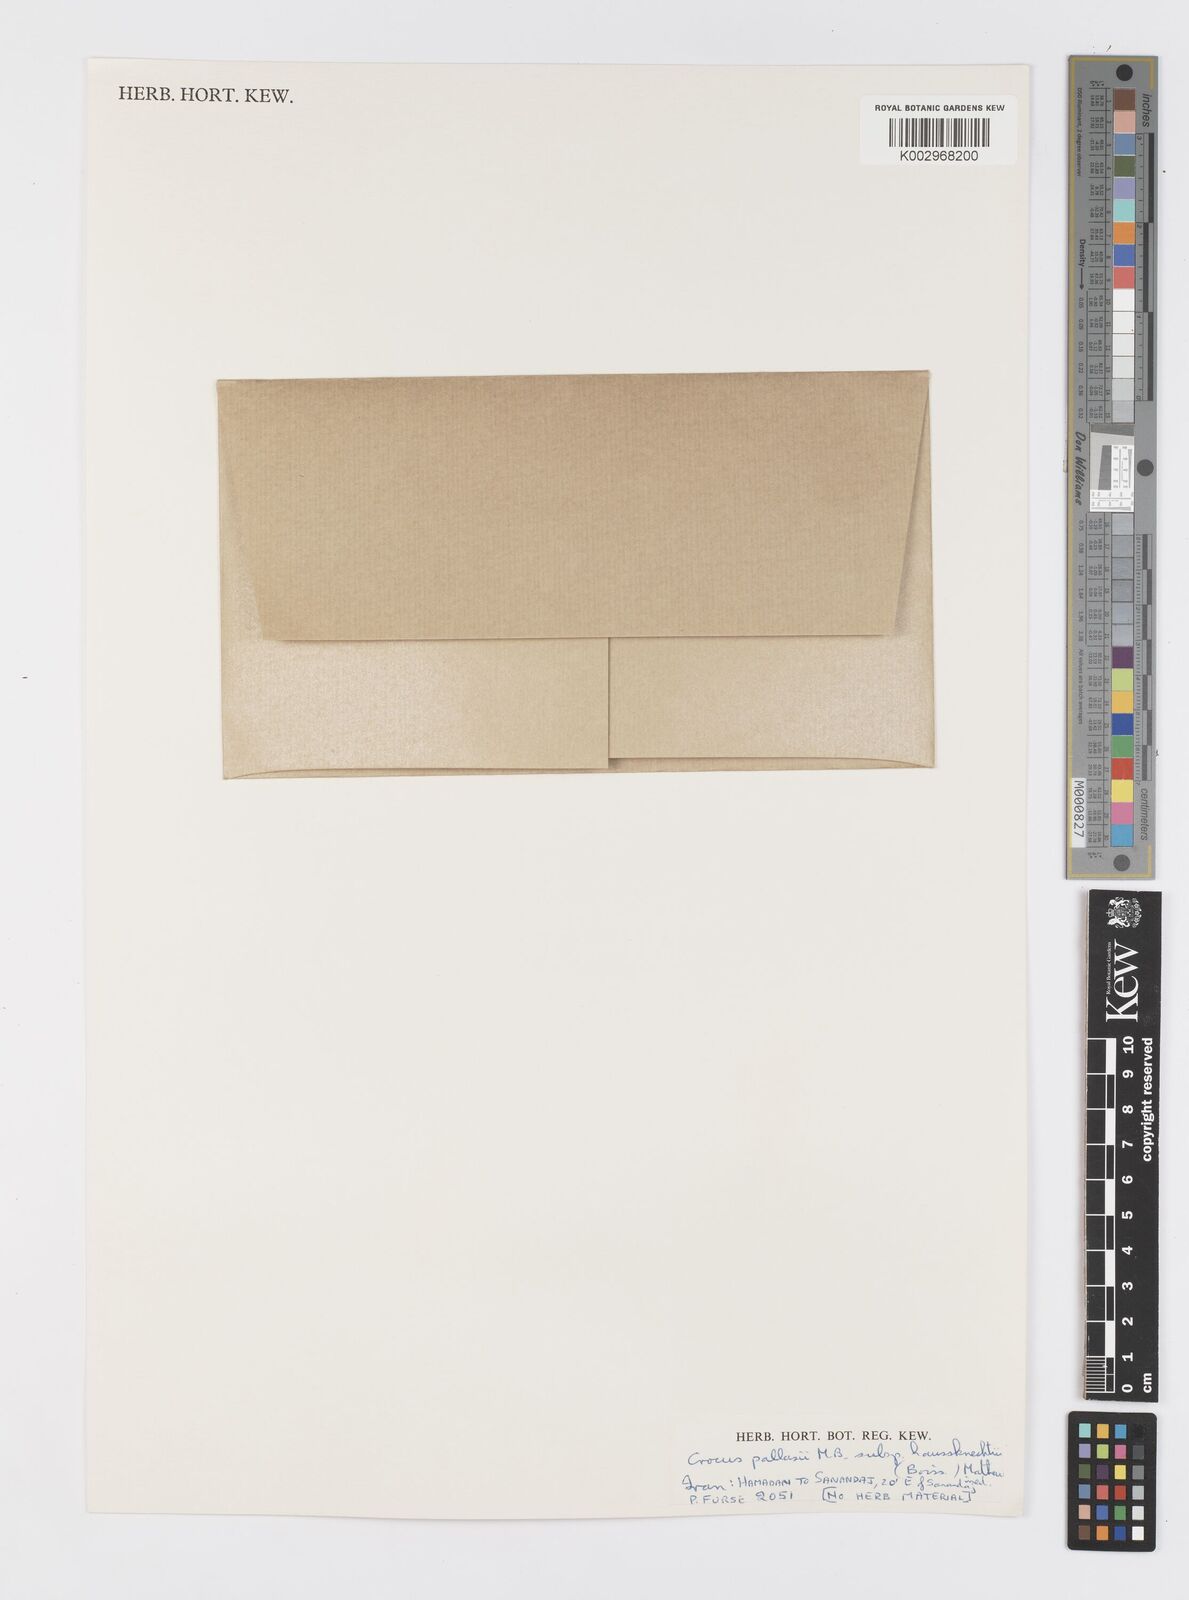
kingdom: Plantae
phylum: Tracheophyta
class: Liliopsida
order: Asparagales
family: Iridaceae
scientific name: Iridaceae
